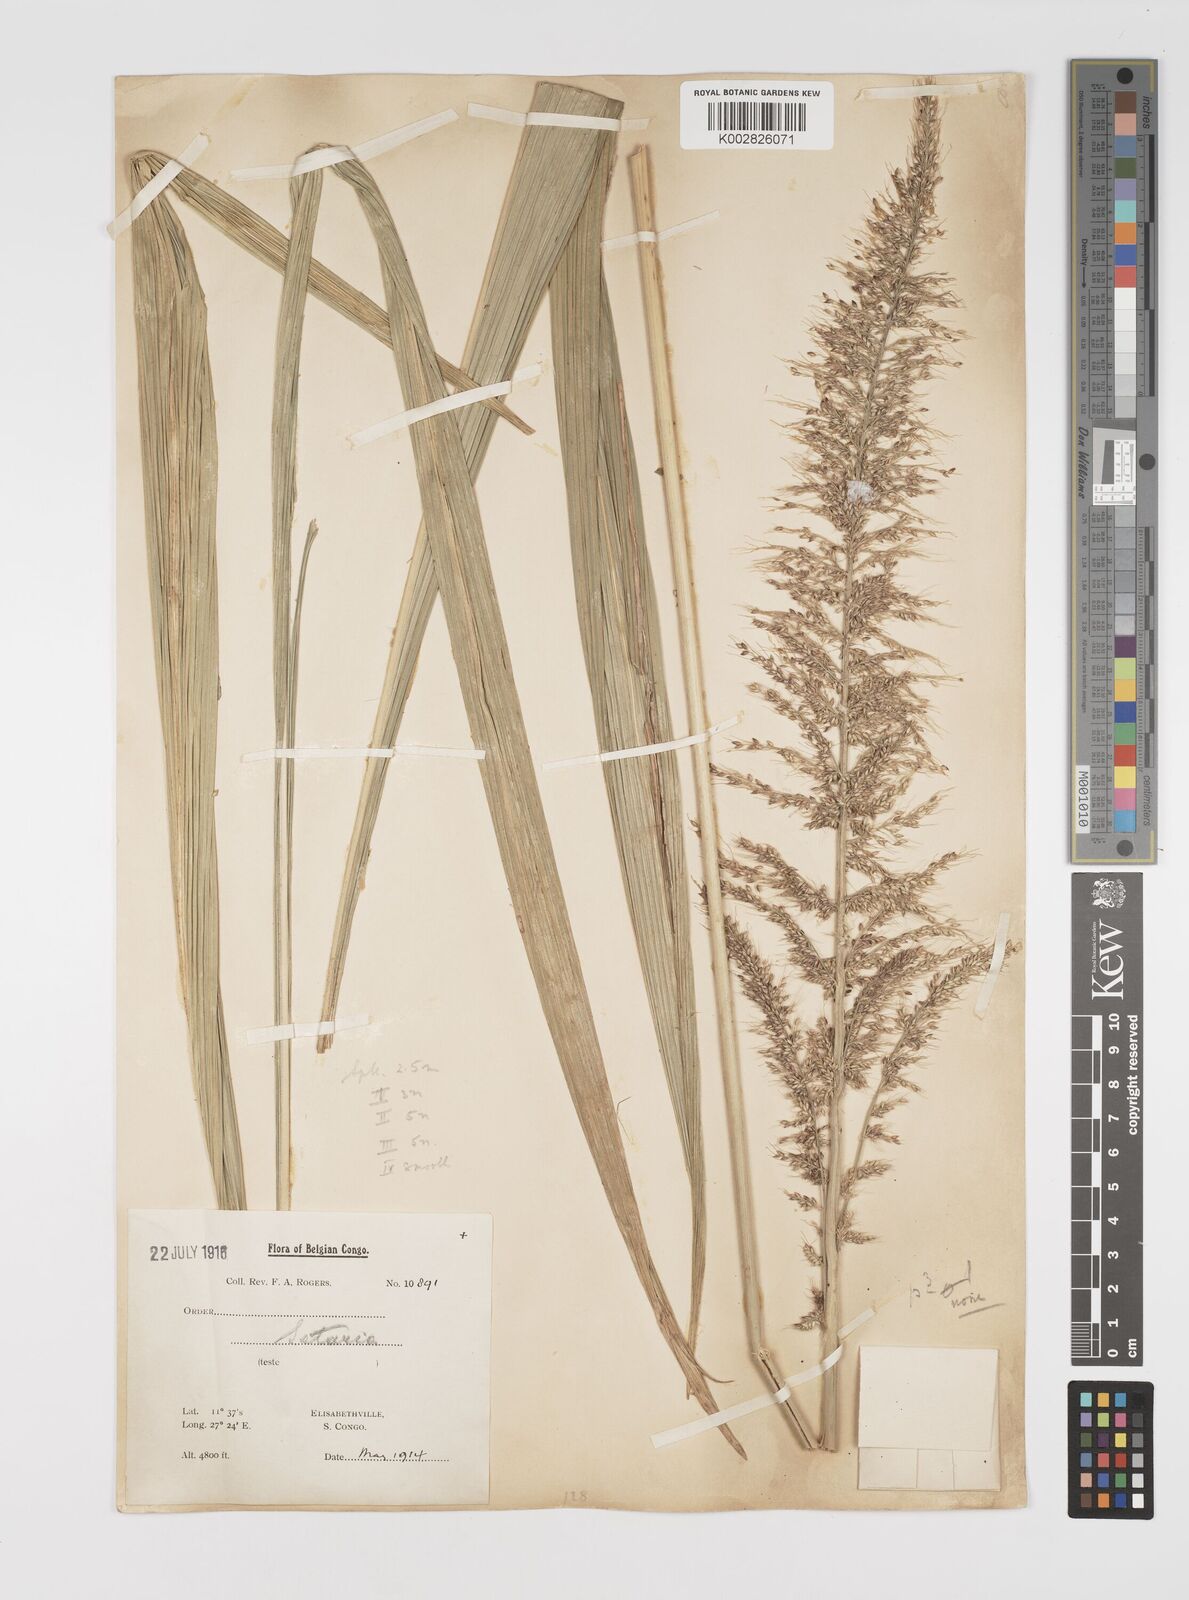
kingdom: Plantae
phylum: Tracheophyta
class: Liliopsida
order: Poales
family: Poaceae
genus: Setaria
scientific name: Setaria megaphylla
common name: Bigleaf bristlegrass
